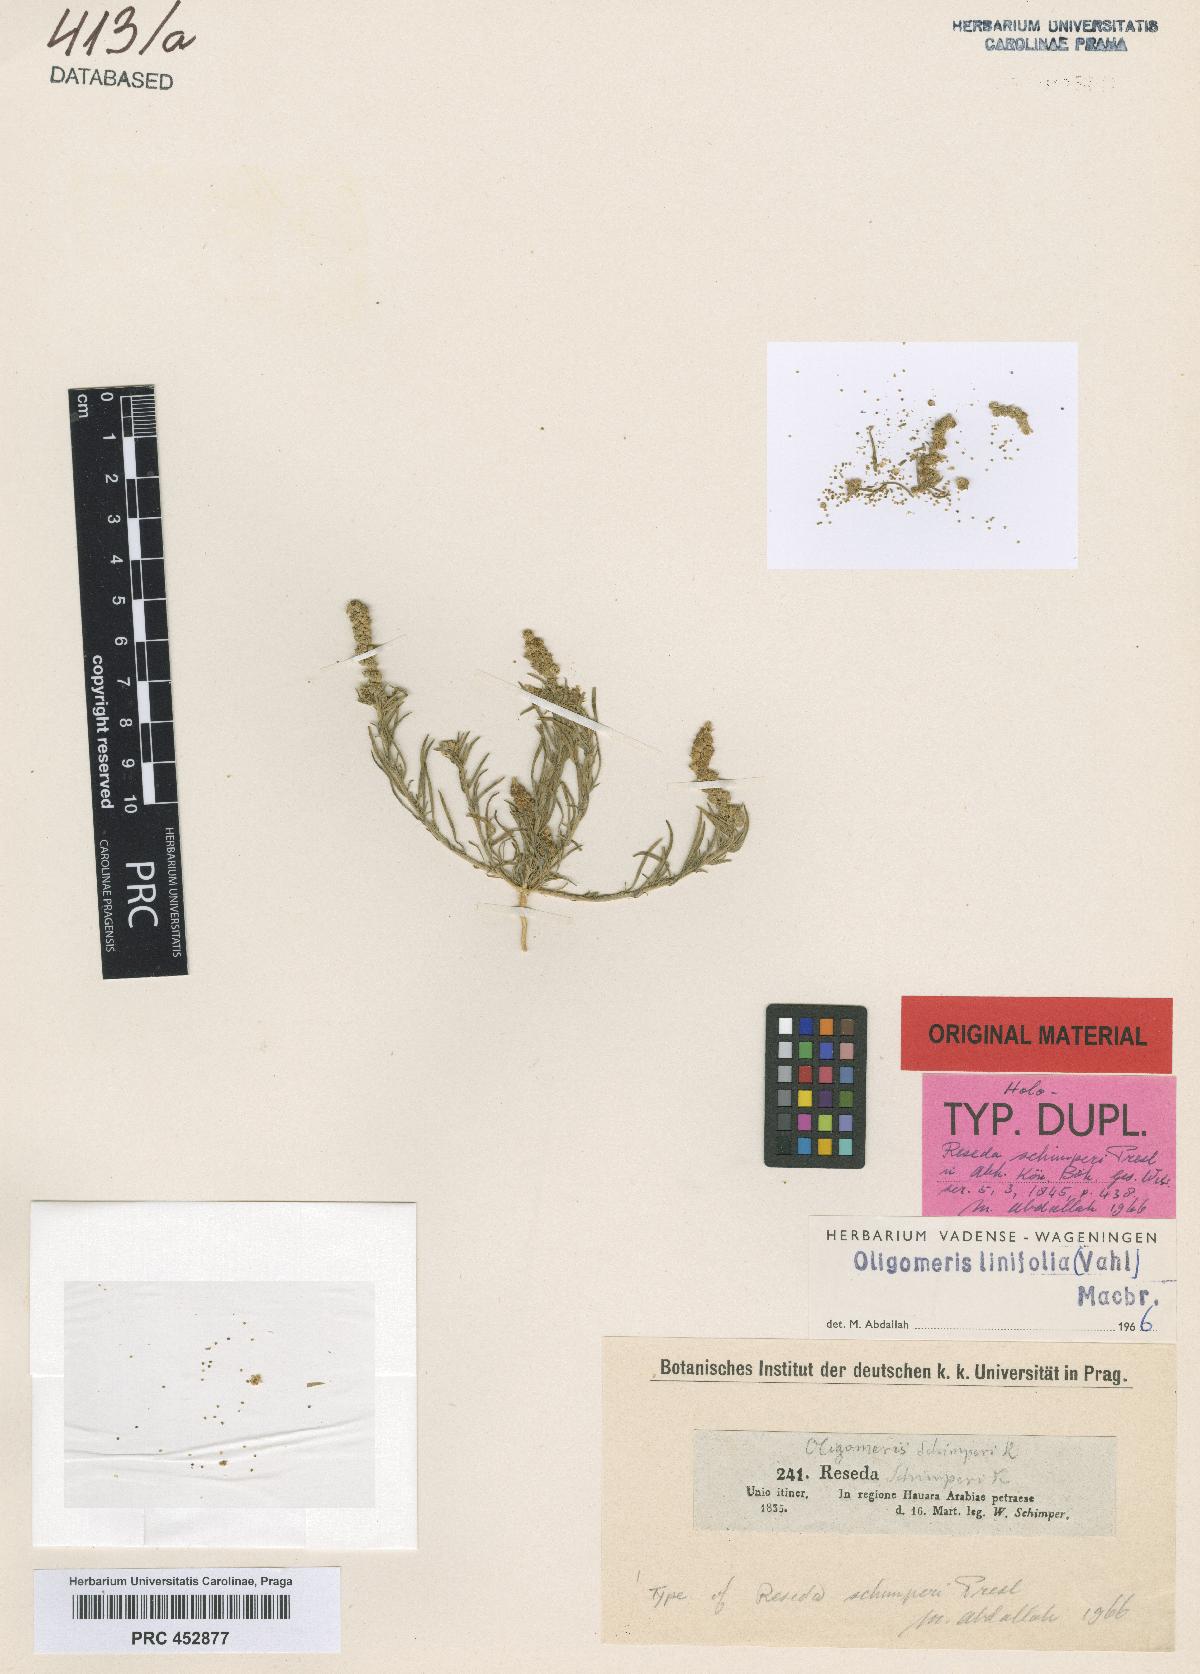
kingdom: Plantae
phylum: Tracheophyta
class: Magnoliopsida
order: Brassicales
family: Resedaceae
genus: Oligomeris
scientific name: Oligomeris linifolia
